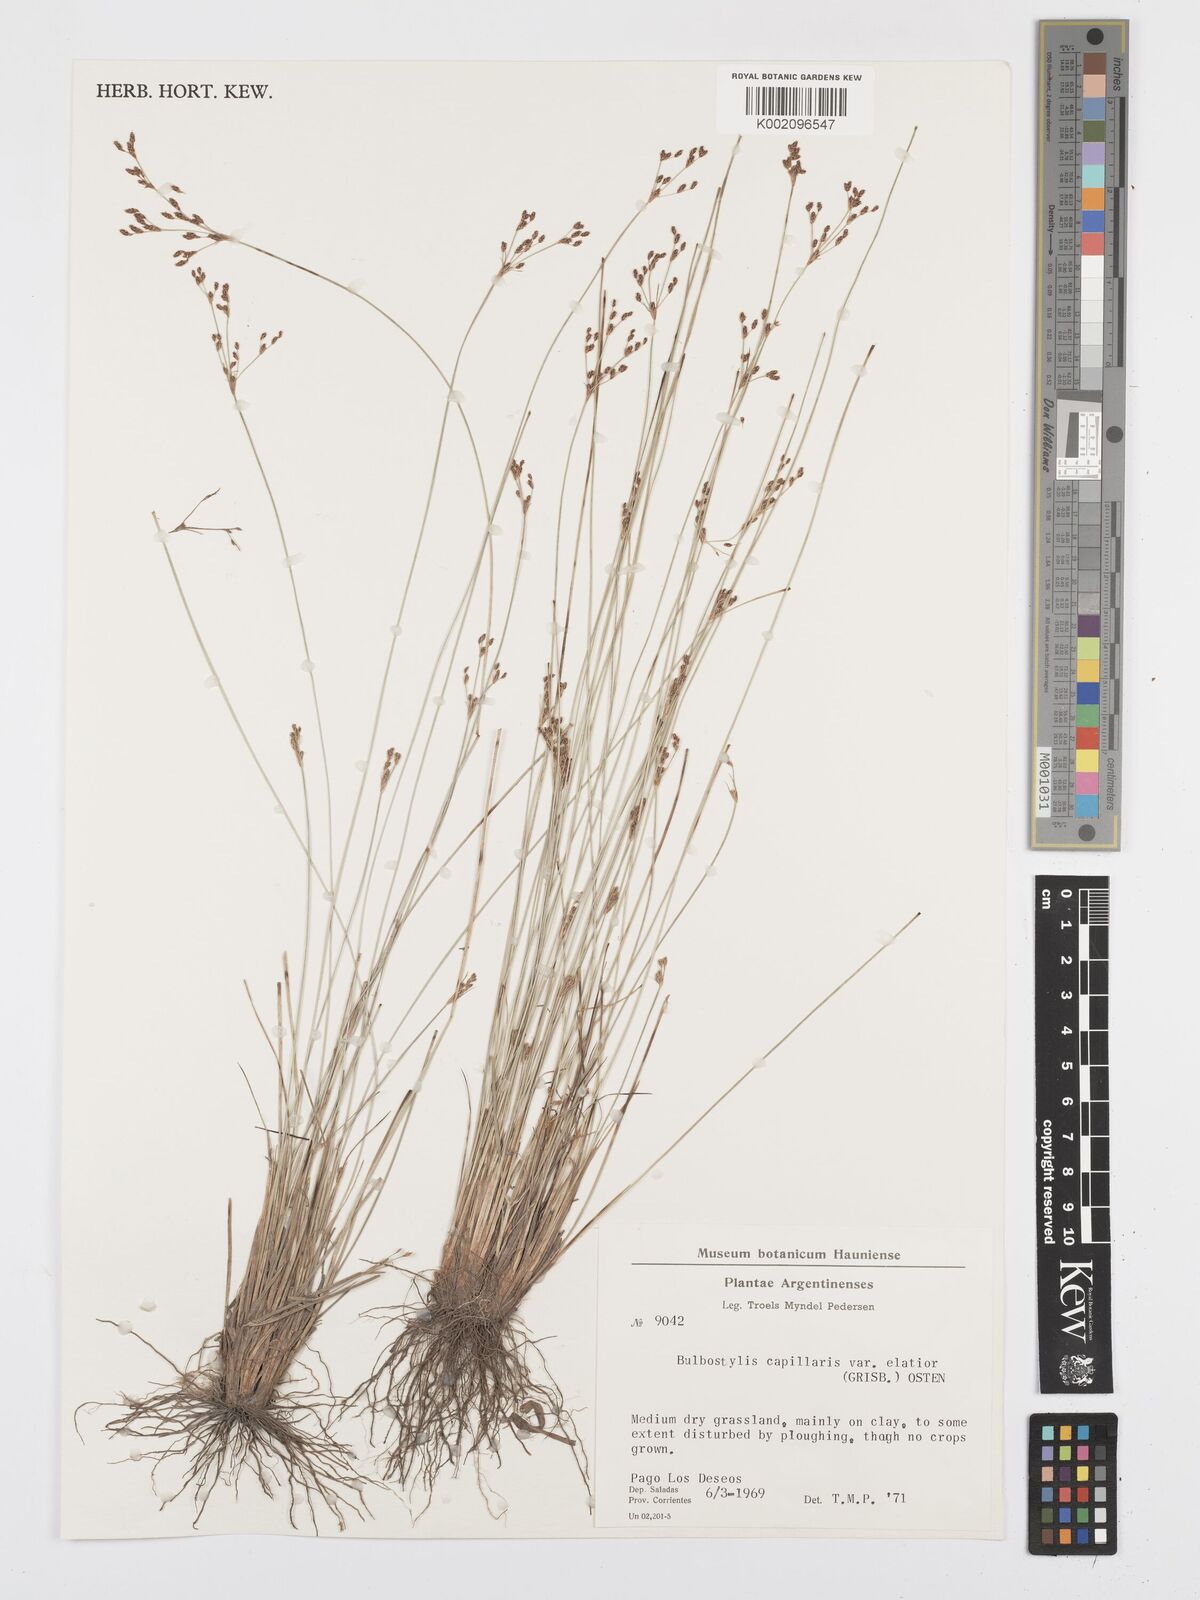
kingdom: Plantae
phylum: Tracheophyta
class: Liliopsida
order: Poales
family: Cyperaceae
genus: Bulbostylis
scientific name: Bulbostylis communis
